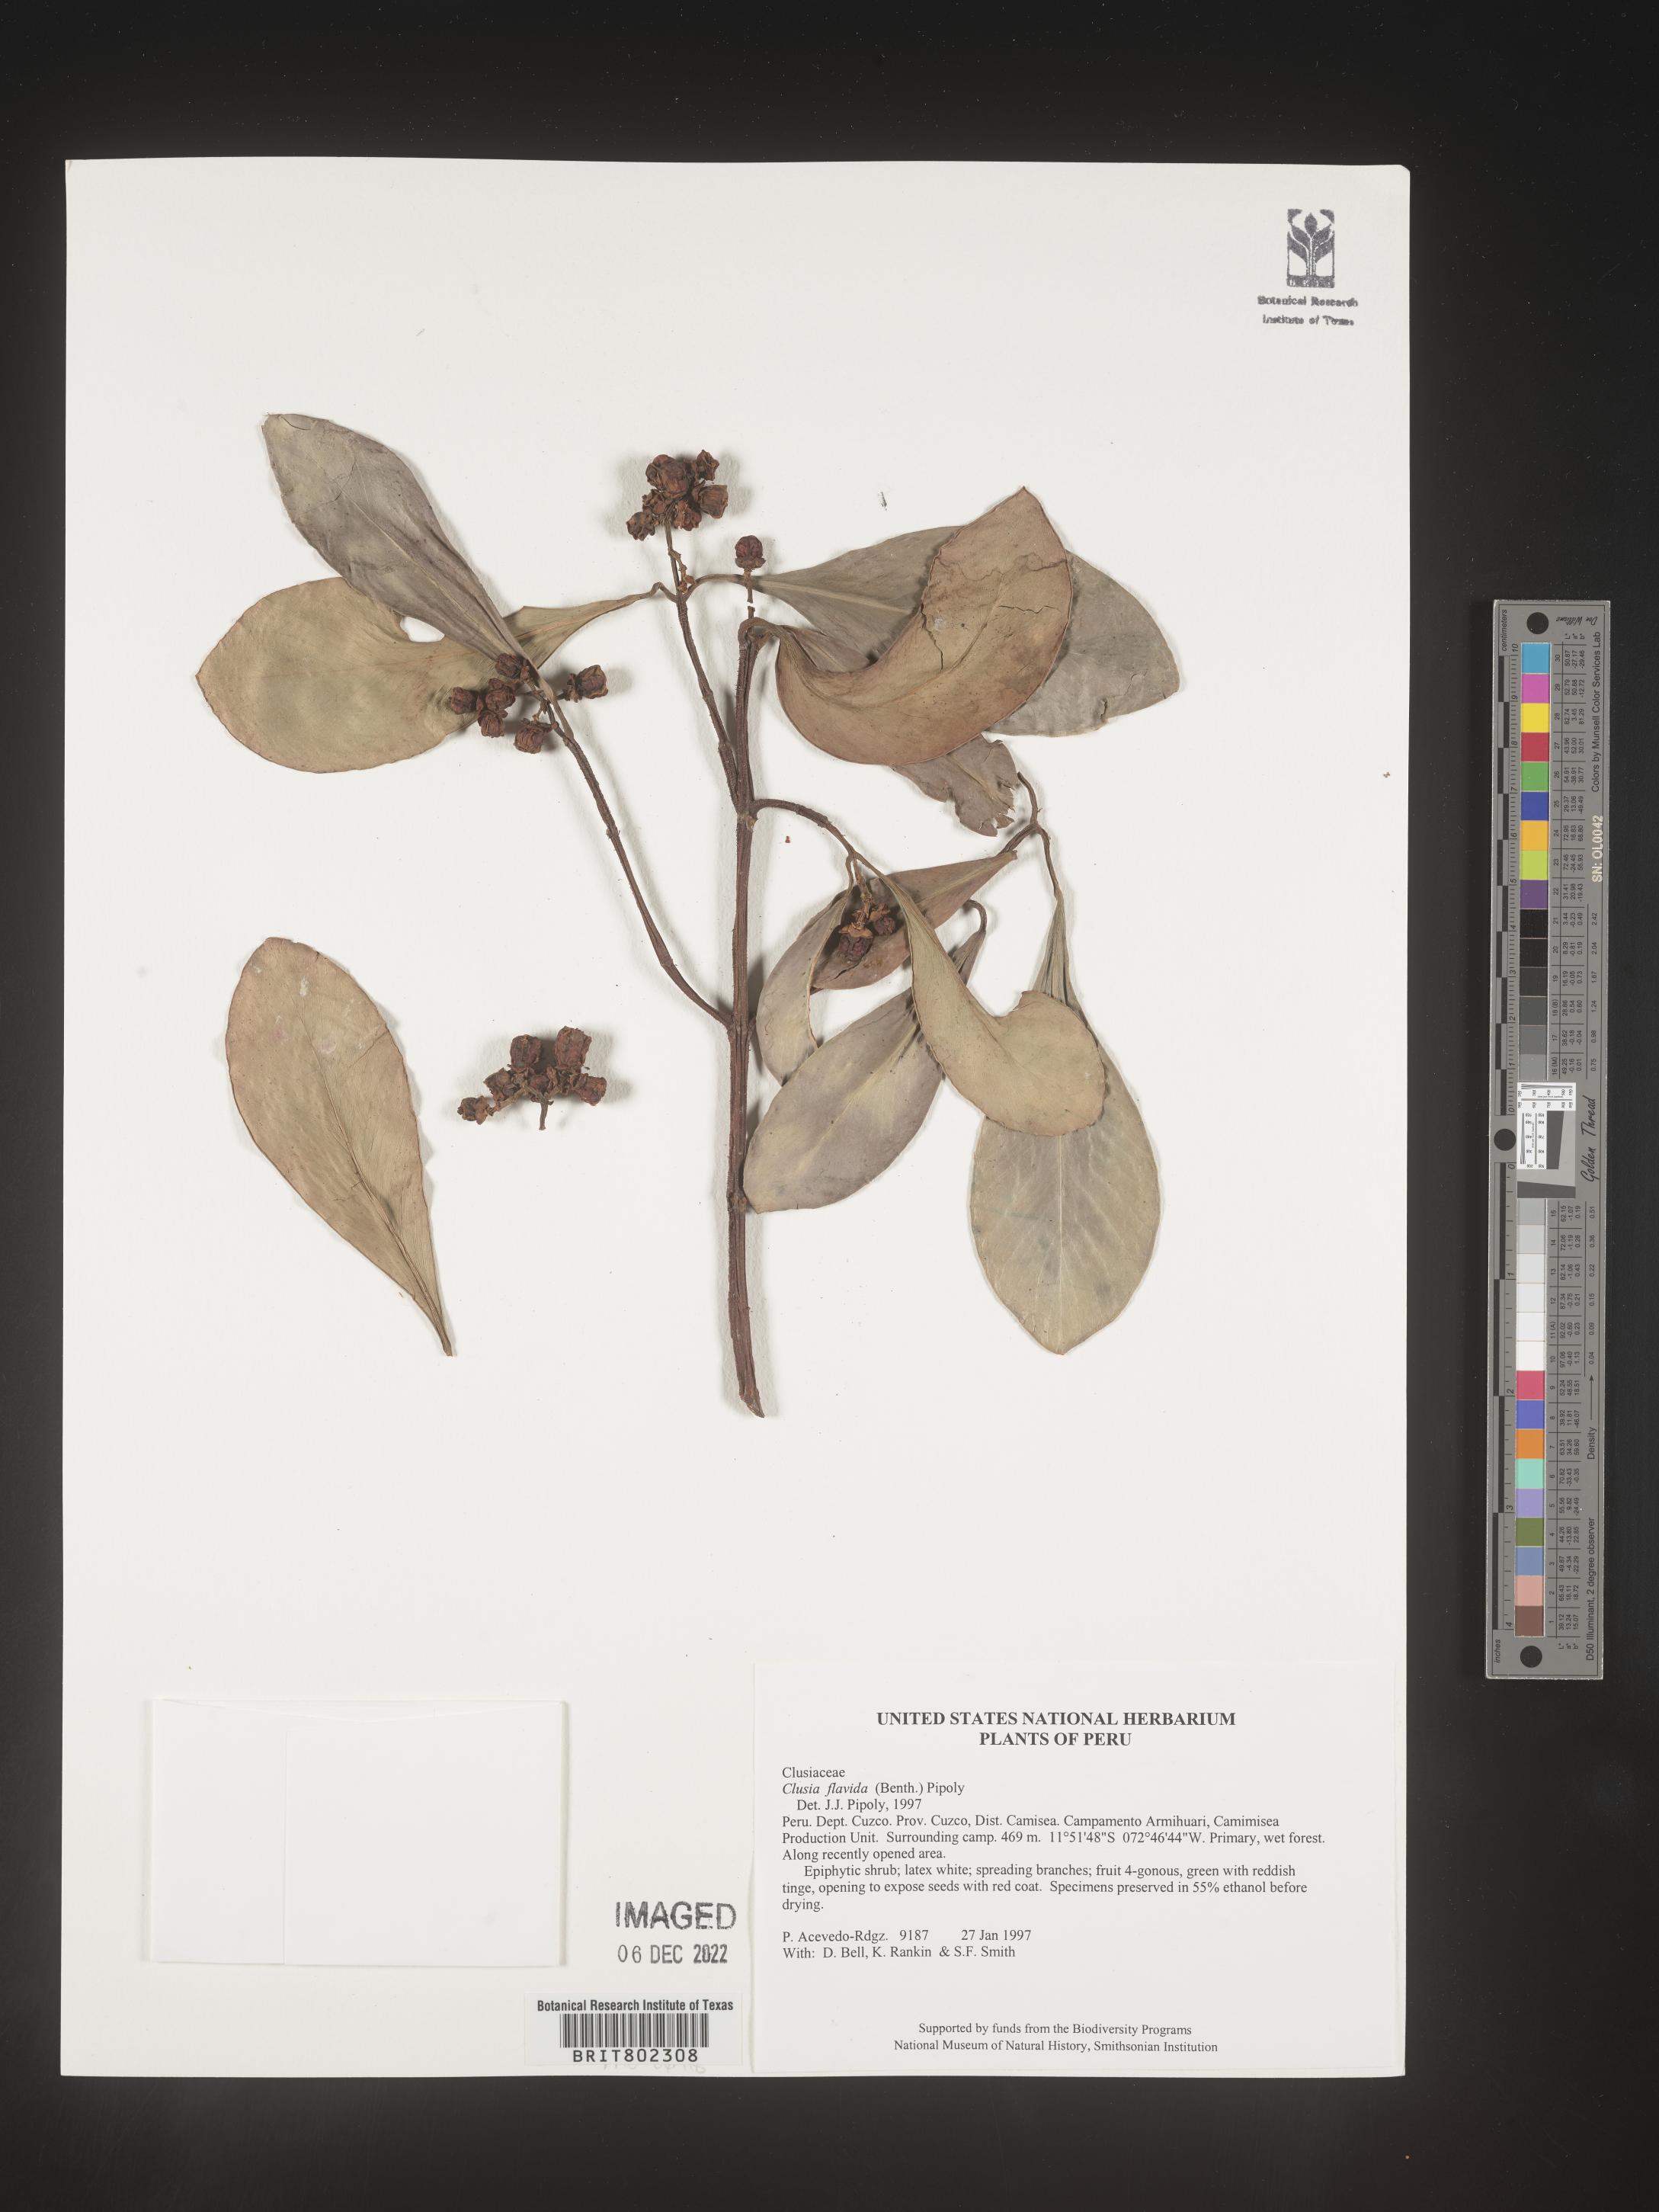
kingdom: Plantae
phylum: Tracheophyta
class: Magnoliopsida
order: Malpighiales
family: Clusiaceae
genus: Clusia
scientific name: Clusia flavida
